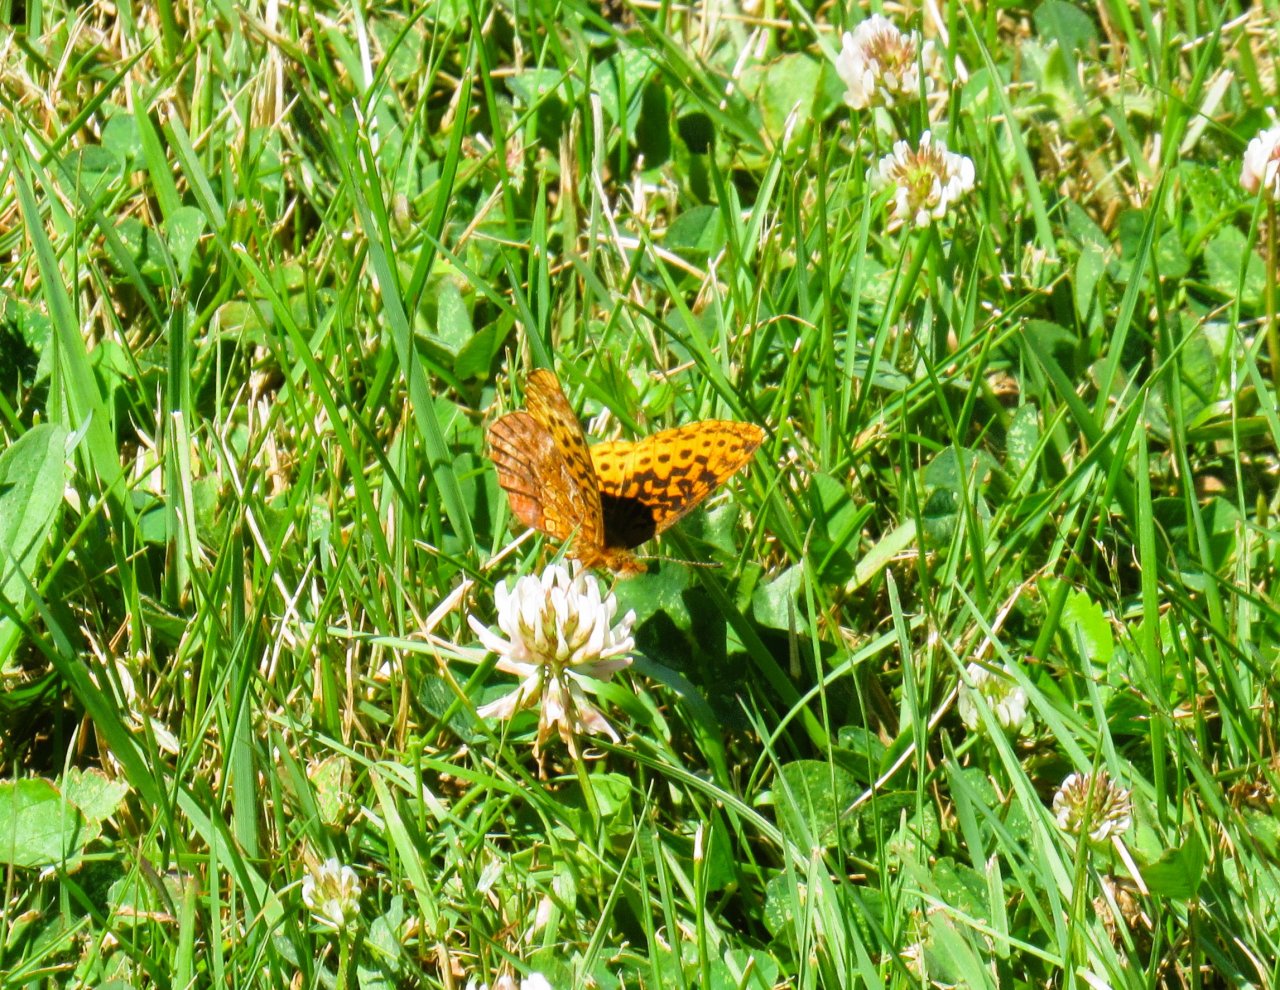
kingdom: Animalia
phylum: Arthropoda
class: Insecta
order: Lepidoptera
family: Nymphalidae
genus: Clossiana
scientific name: Clossiana toddi
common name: Meadow Fritillary
